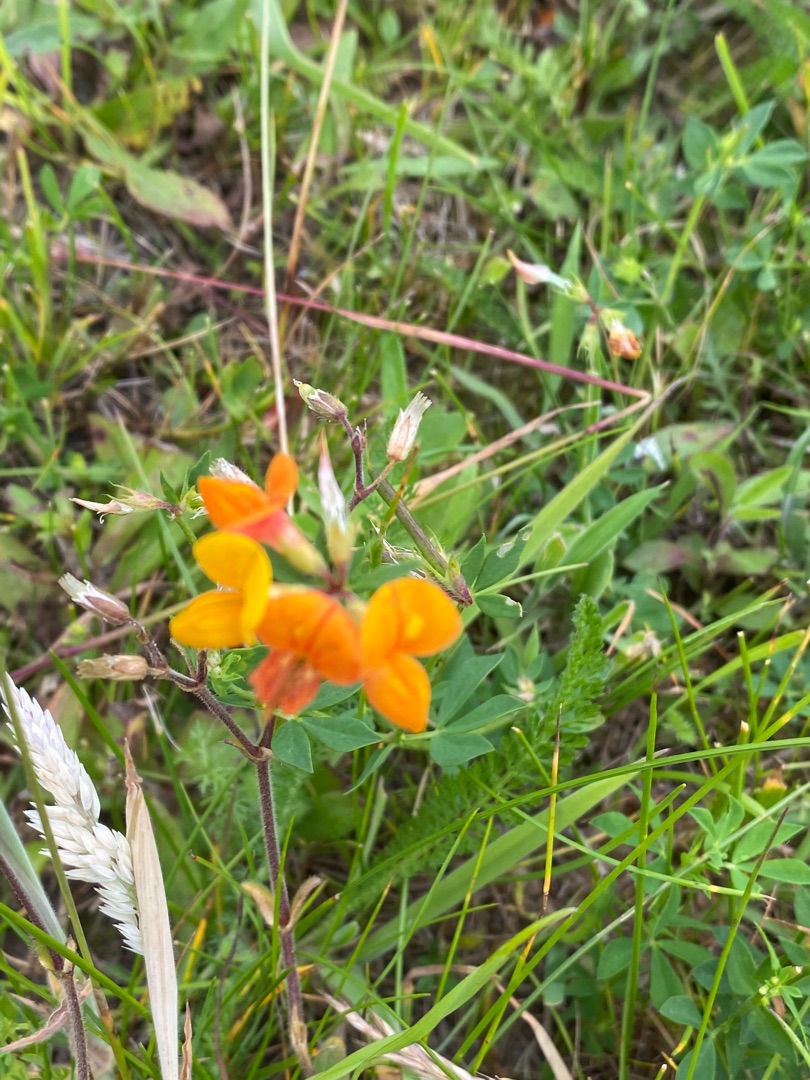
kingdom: Plantae
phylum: Tracheophyta
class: Magnoliopsida
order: Fabales
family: Fabaceae
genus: Lotus
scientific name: Lotus corniculatus
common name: Almindelig kællingetand
